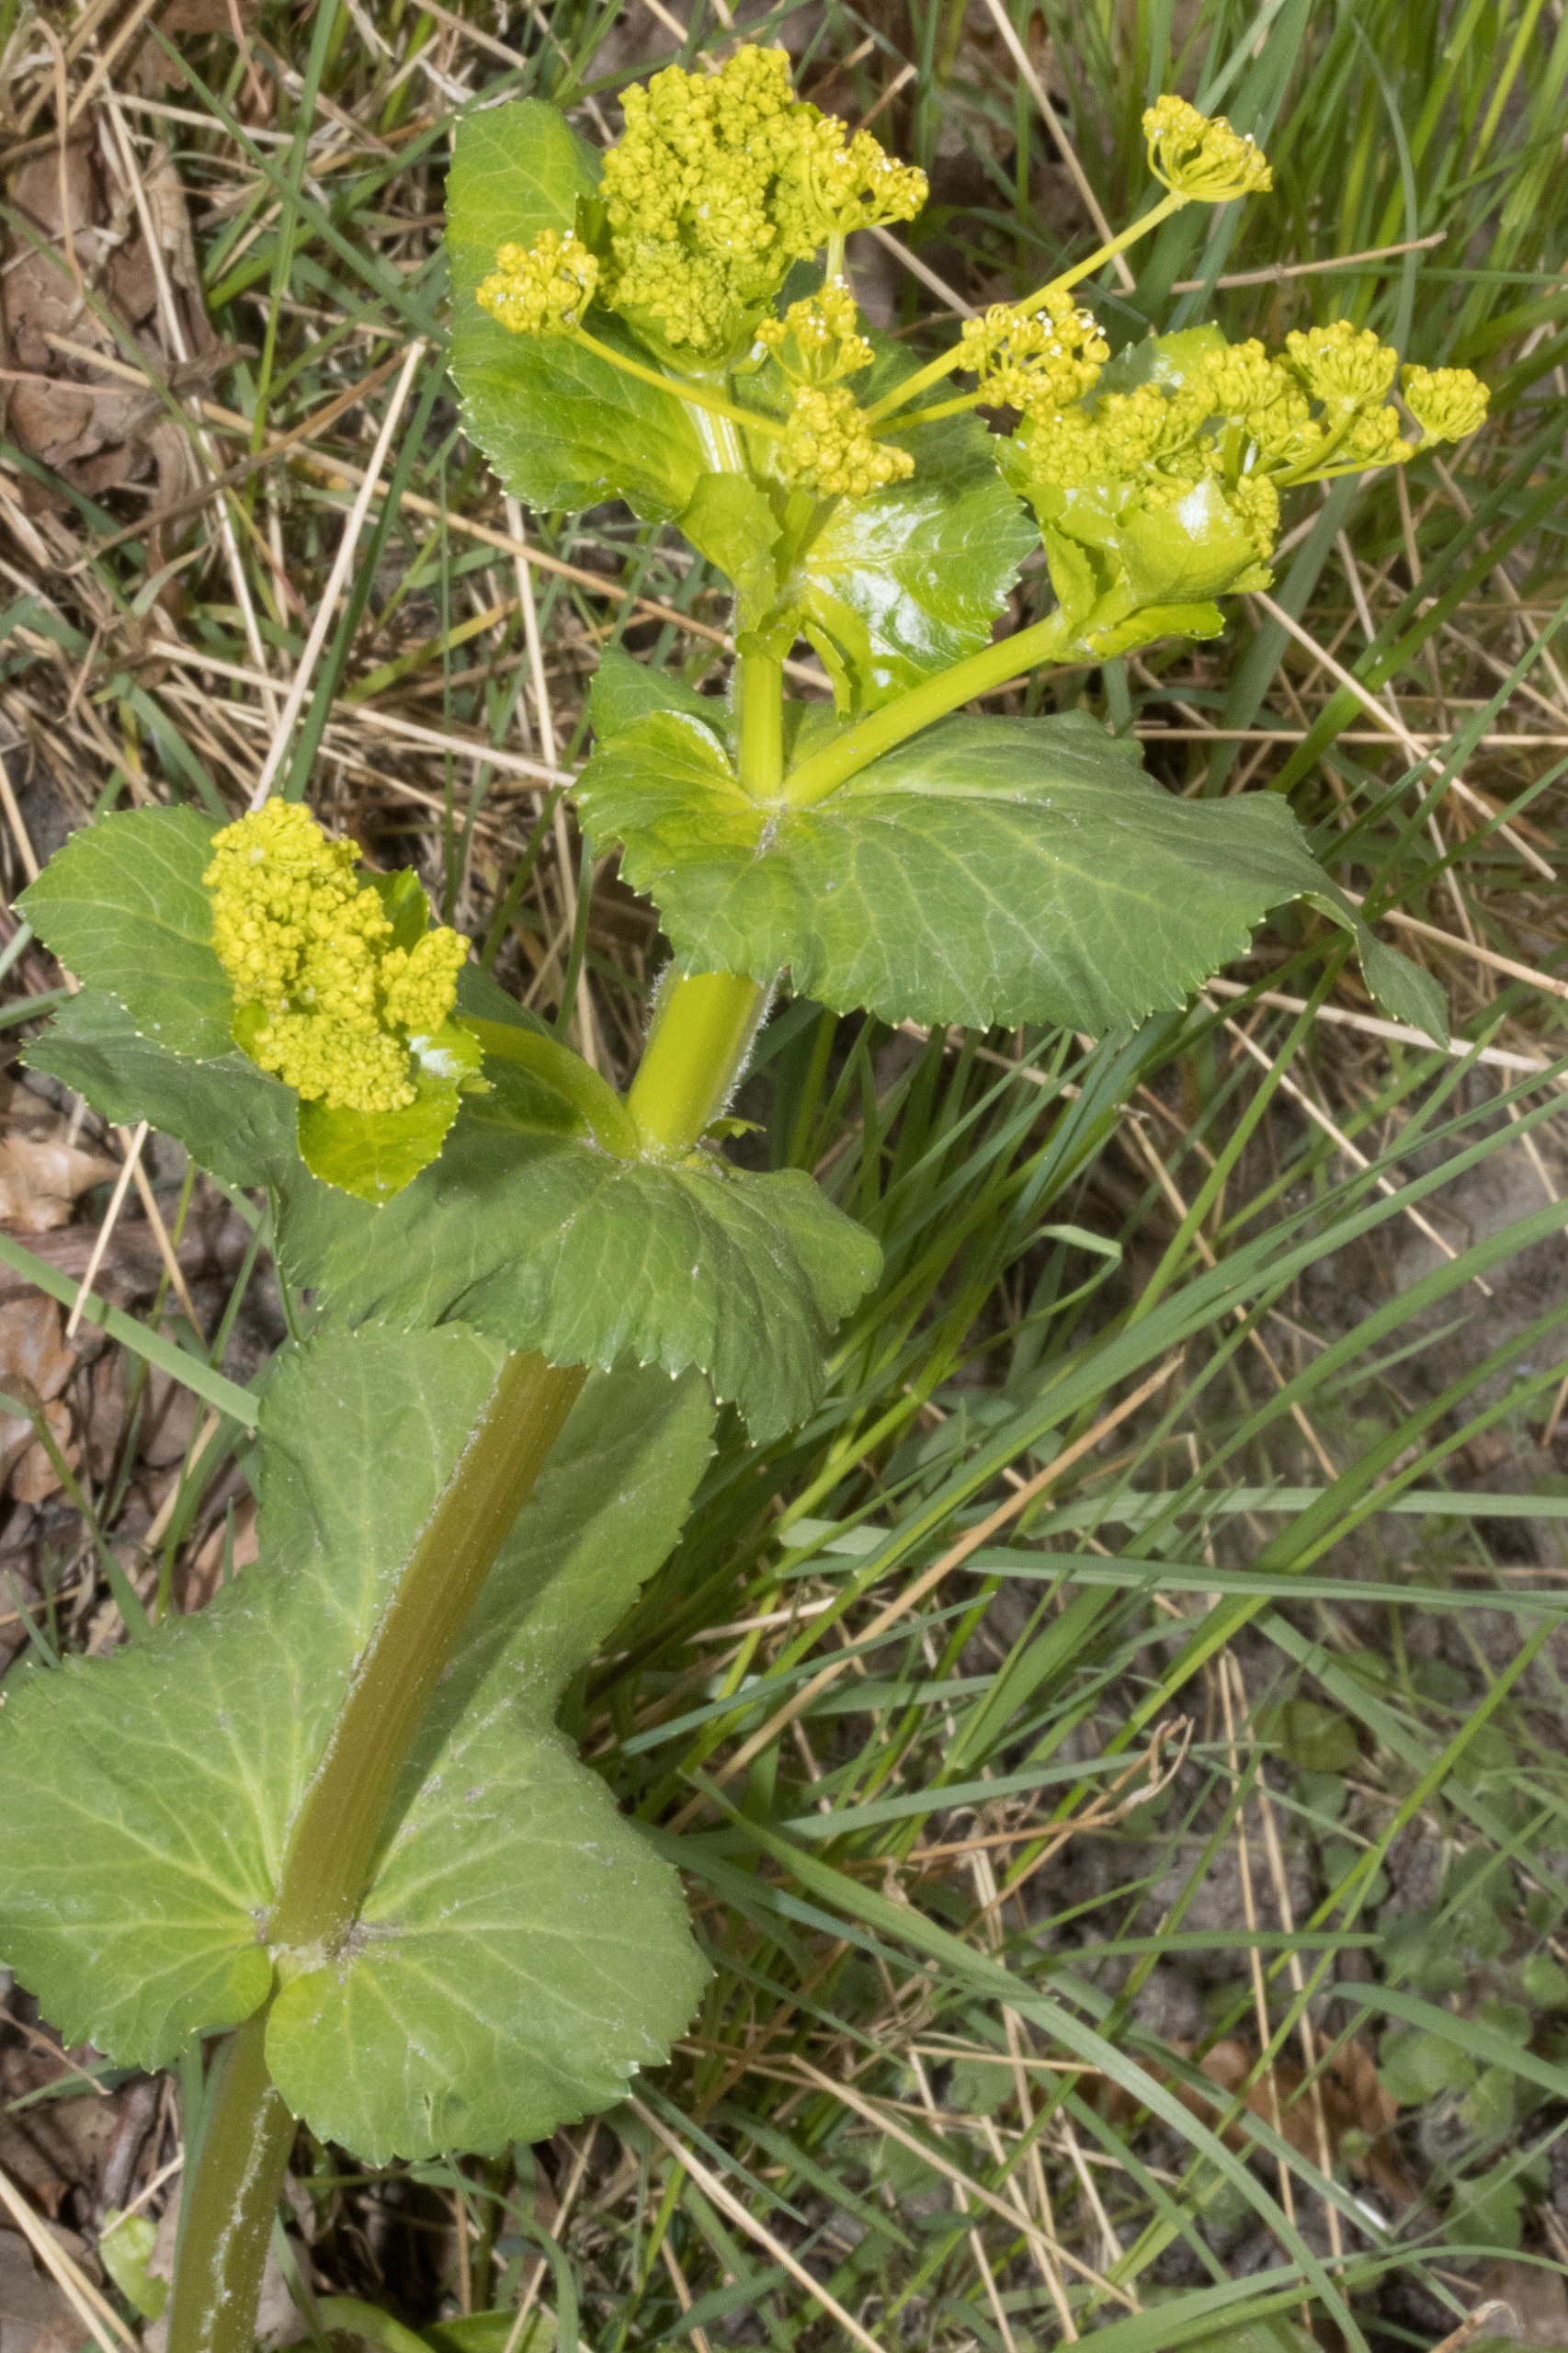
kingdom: Plantae
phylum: Tracheophyta
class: Magnoliopsida
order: Apiales
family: Apiaceae
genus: Smyrnium
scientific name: Smyrnium perfoliatum
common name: Lundgylden
